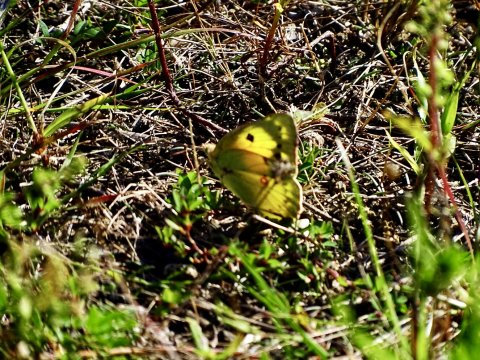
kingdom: Animalia
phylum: Arthropoda
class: Insecta
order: Lepidoptera
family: Pieridae
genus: Colias
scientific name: Colias eurytheme
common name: Orange Sulphur
